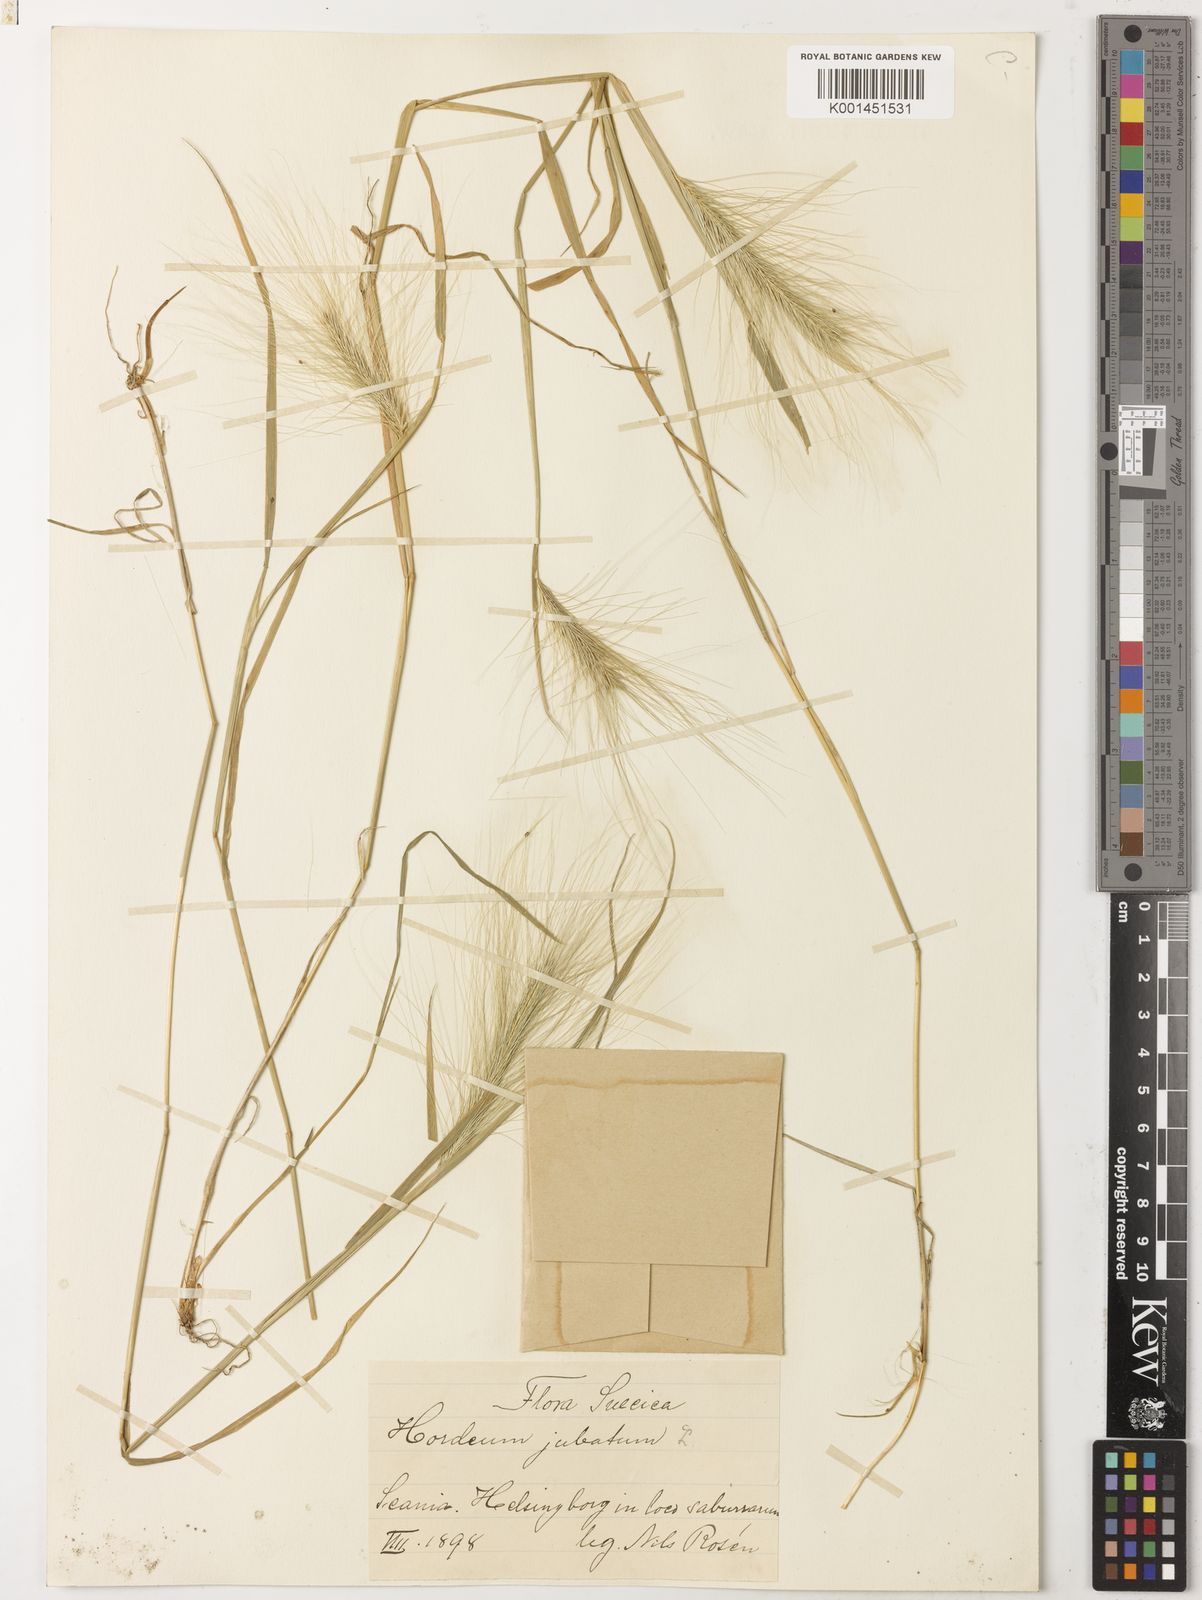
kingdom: Plantae
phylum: Tracheophyta
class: Liliopsida
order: Poales
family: Poaceae
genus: Hordeum
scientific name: Hordeum jubatum
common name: Foxtail barley
